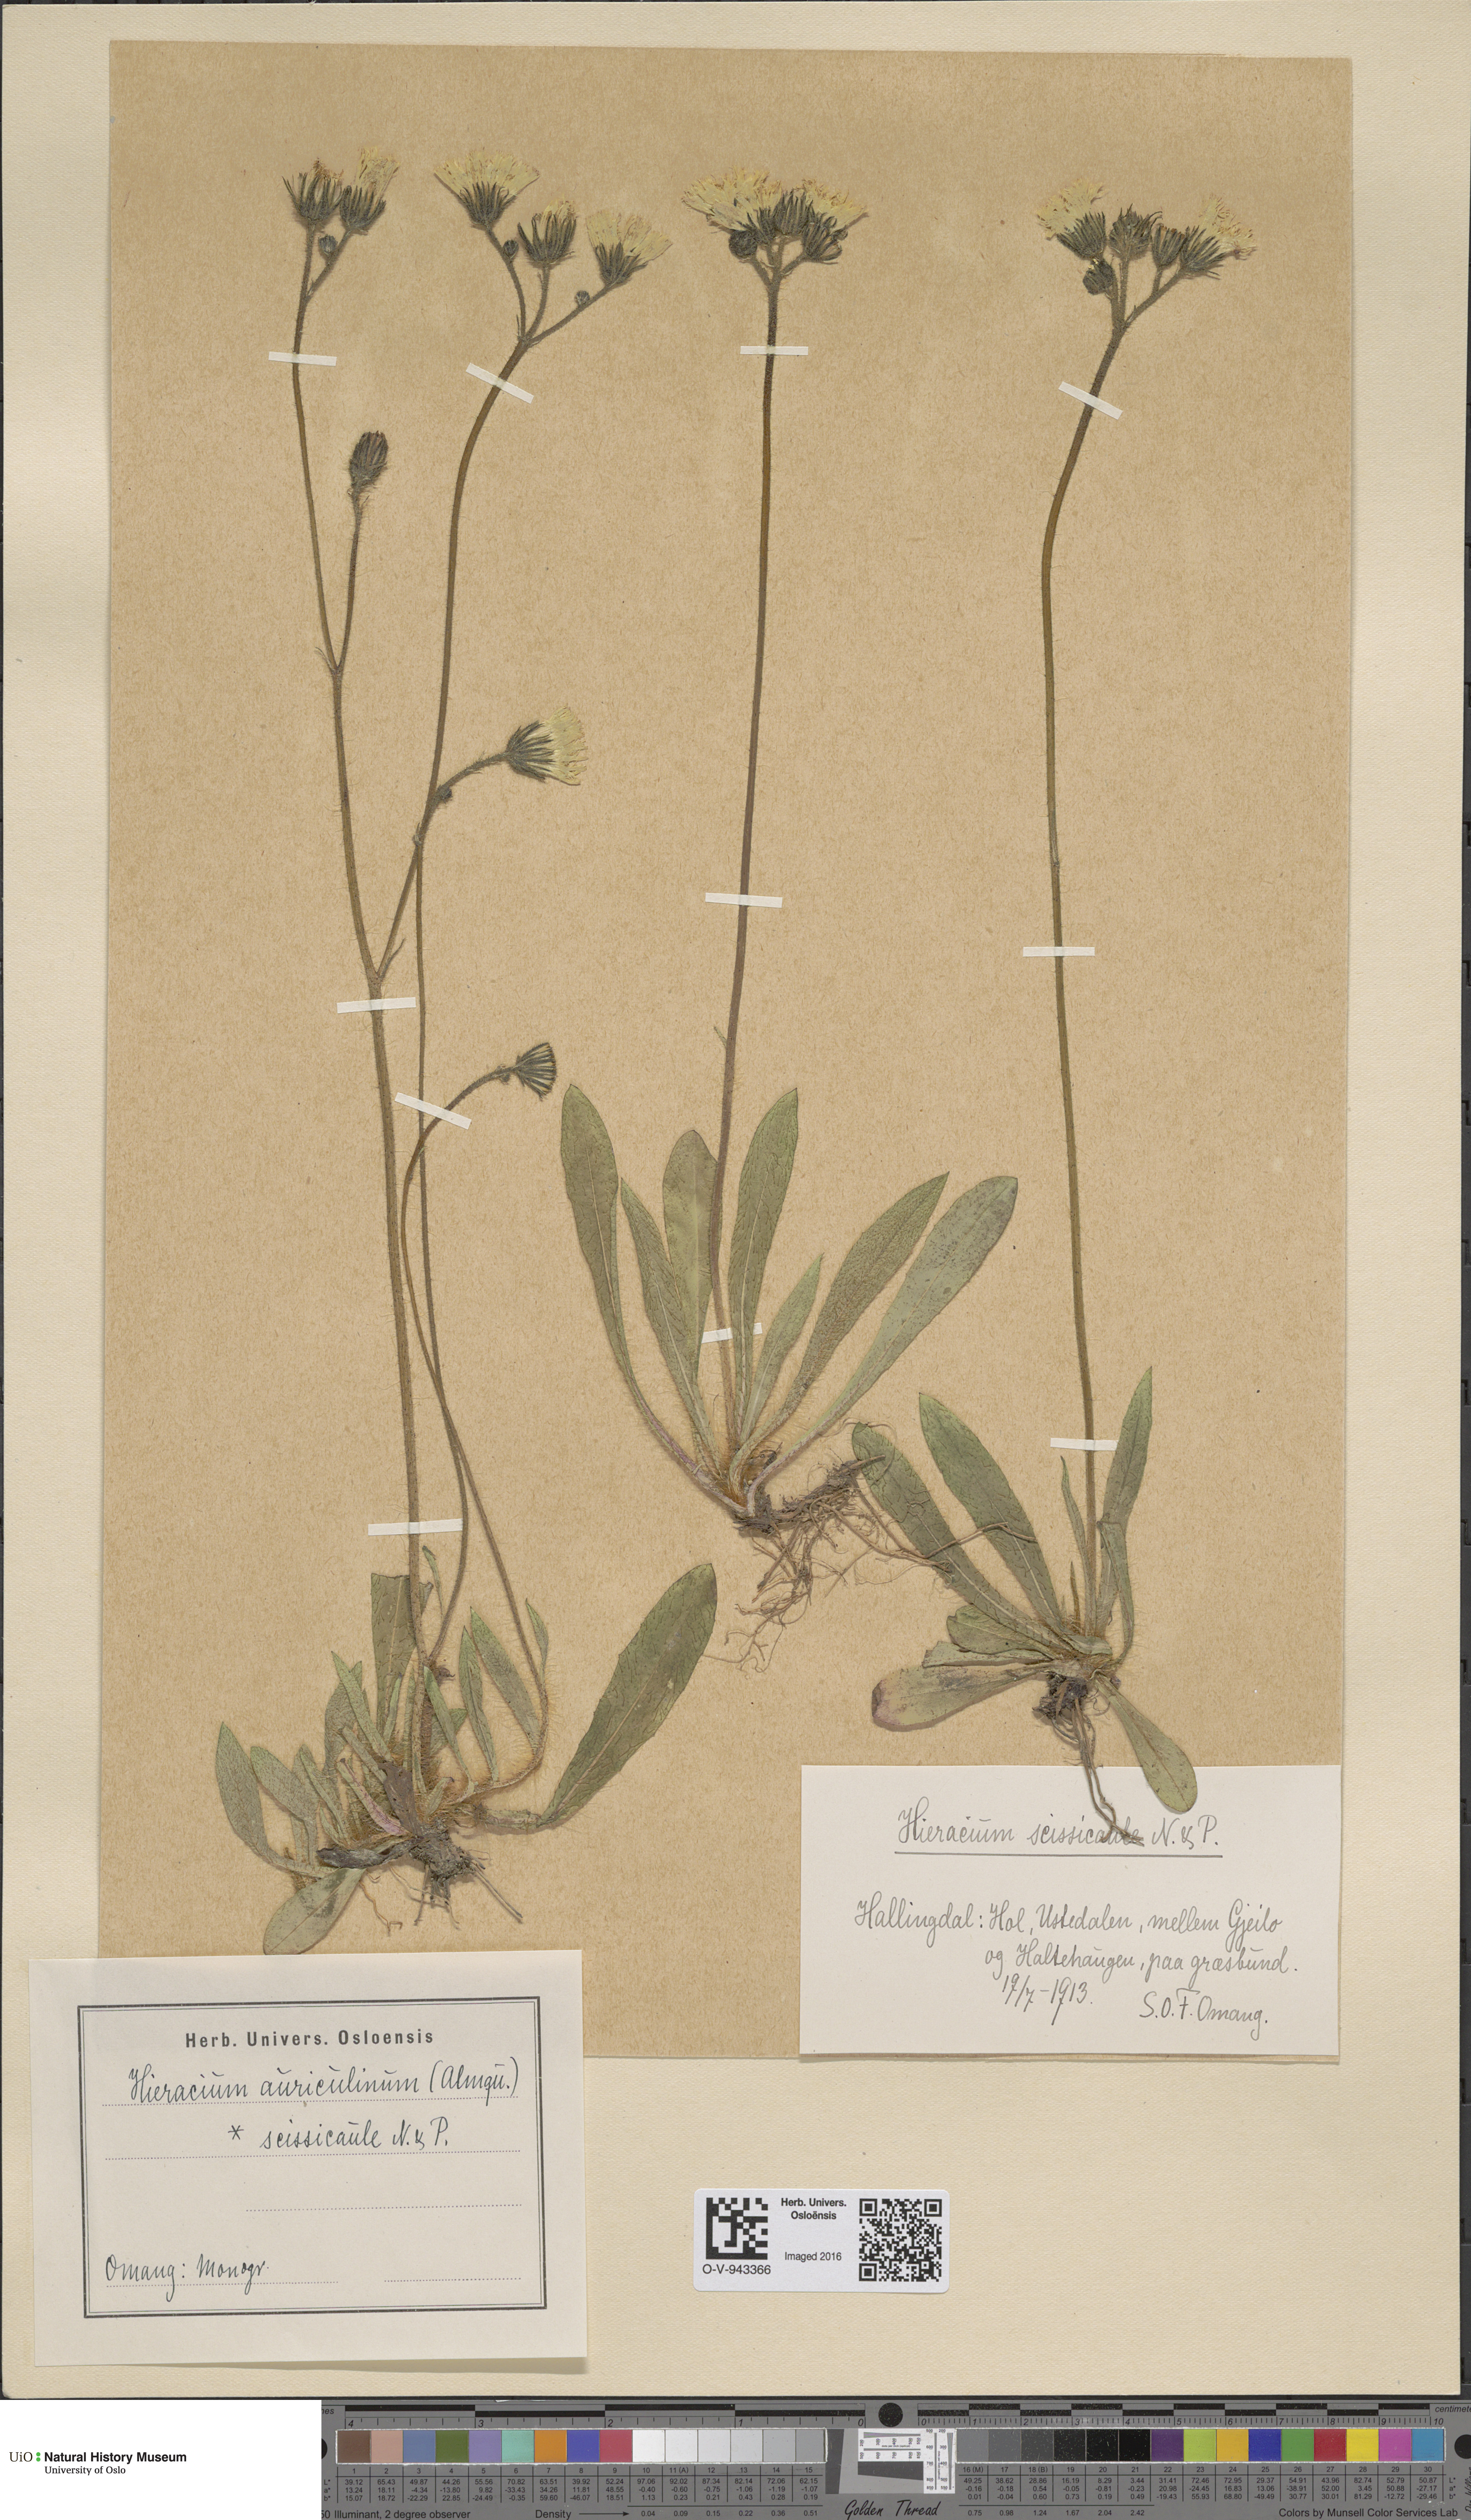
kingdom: Plantae
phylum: Tracheophyta
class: Magnoliopsida
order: Asterales
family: Asteraceae
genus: Pilosella
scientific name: Pilosella dubia
